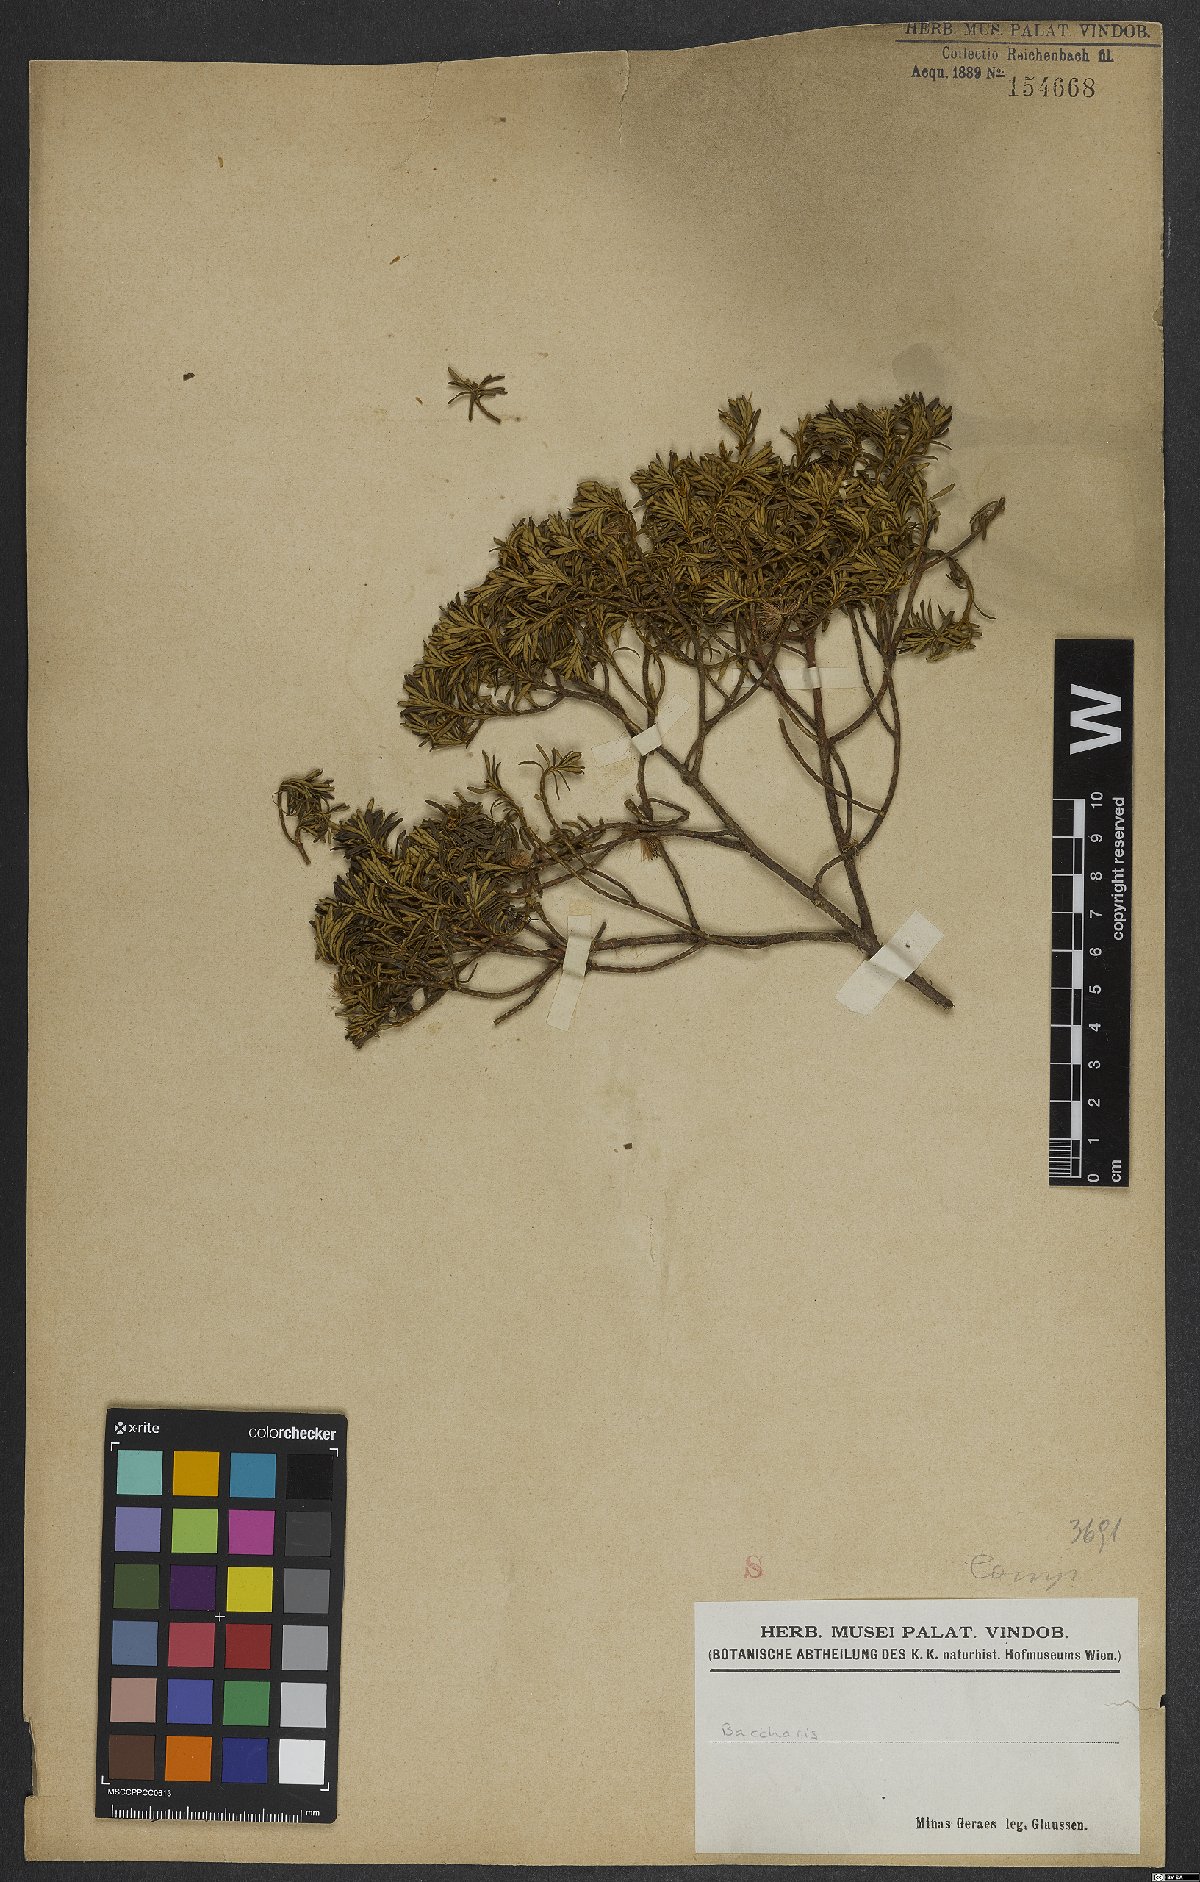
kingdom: Plantae
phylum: Tracheophyta
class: Magnoliopsida
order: Asterales
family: Asteraceae
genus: Baccharis
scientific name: Baccharis
